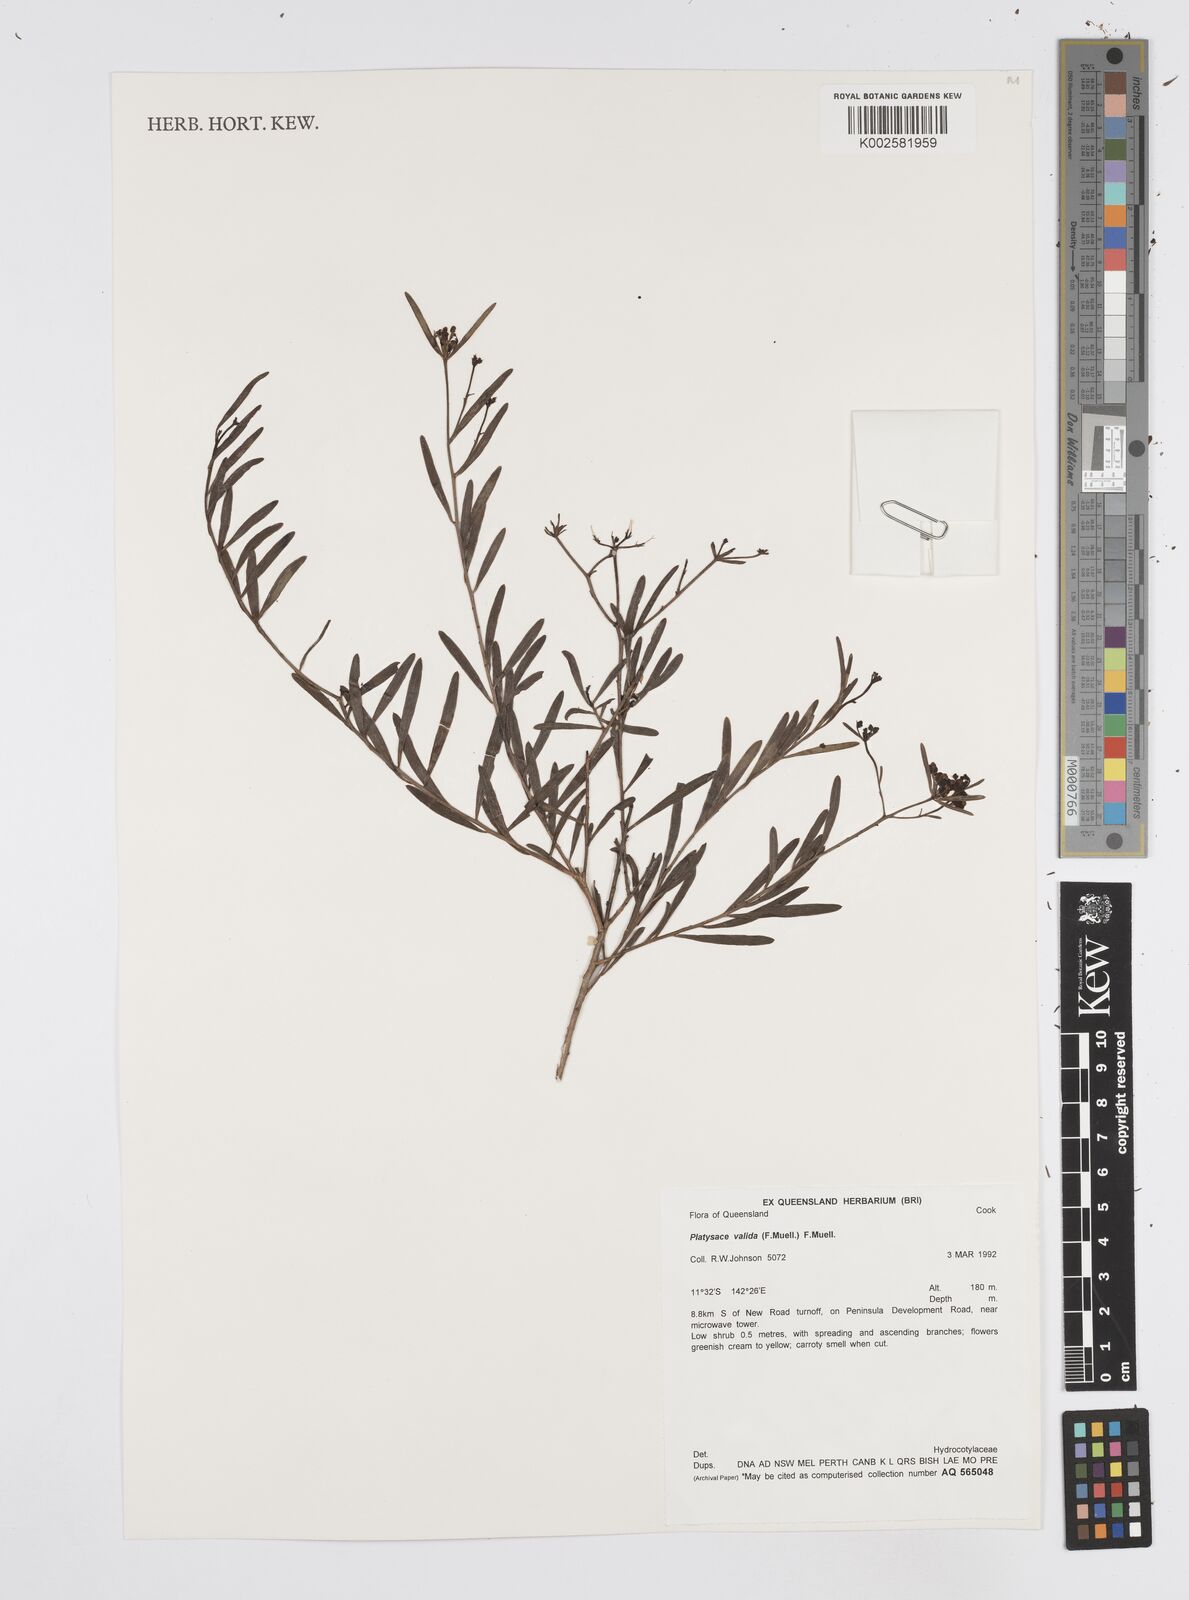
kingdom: Plantae
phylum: Tracheophyta
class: Magnoliopsida
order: Apiales
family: Apiaceae
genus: Platysace
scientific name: Platysace valida
